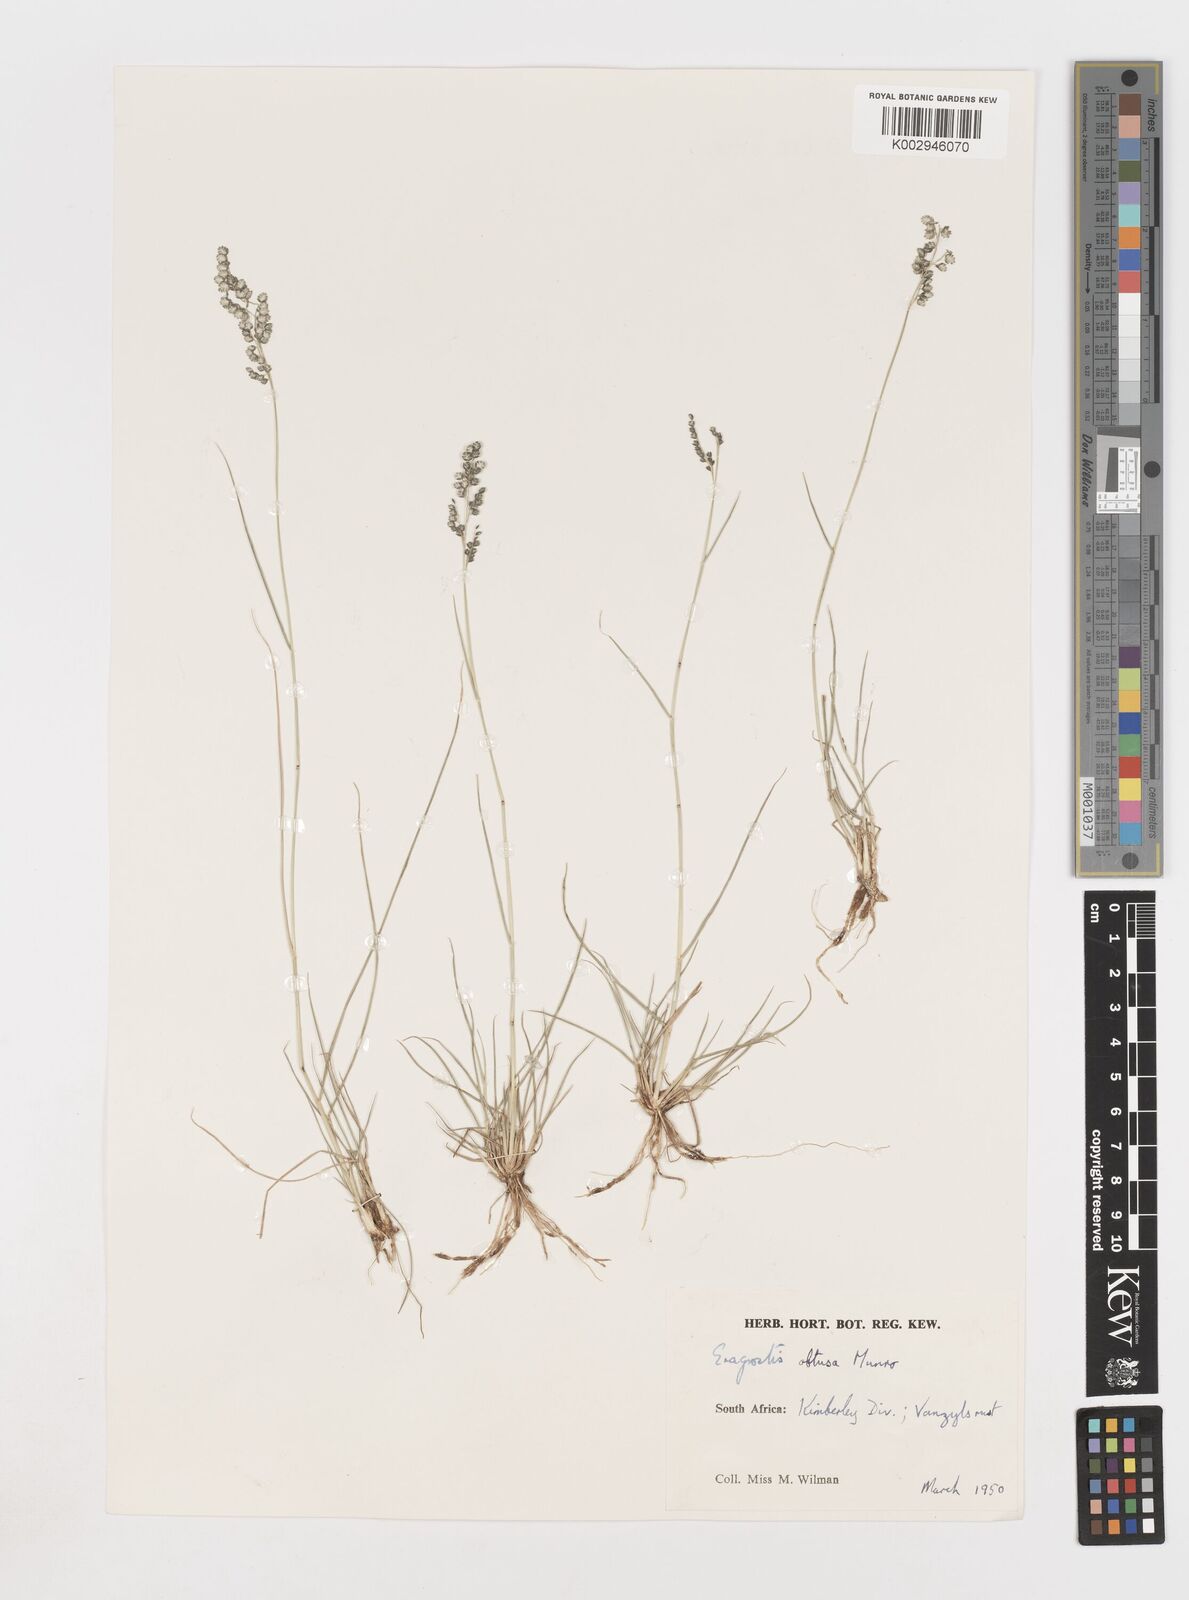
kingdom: Plantae
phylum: Tracheophyta
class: Liliopsida
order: Poales
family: Poaceae
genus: Eragrostis
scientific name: Eragrostis obtusa
